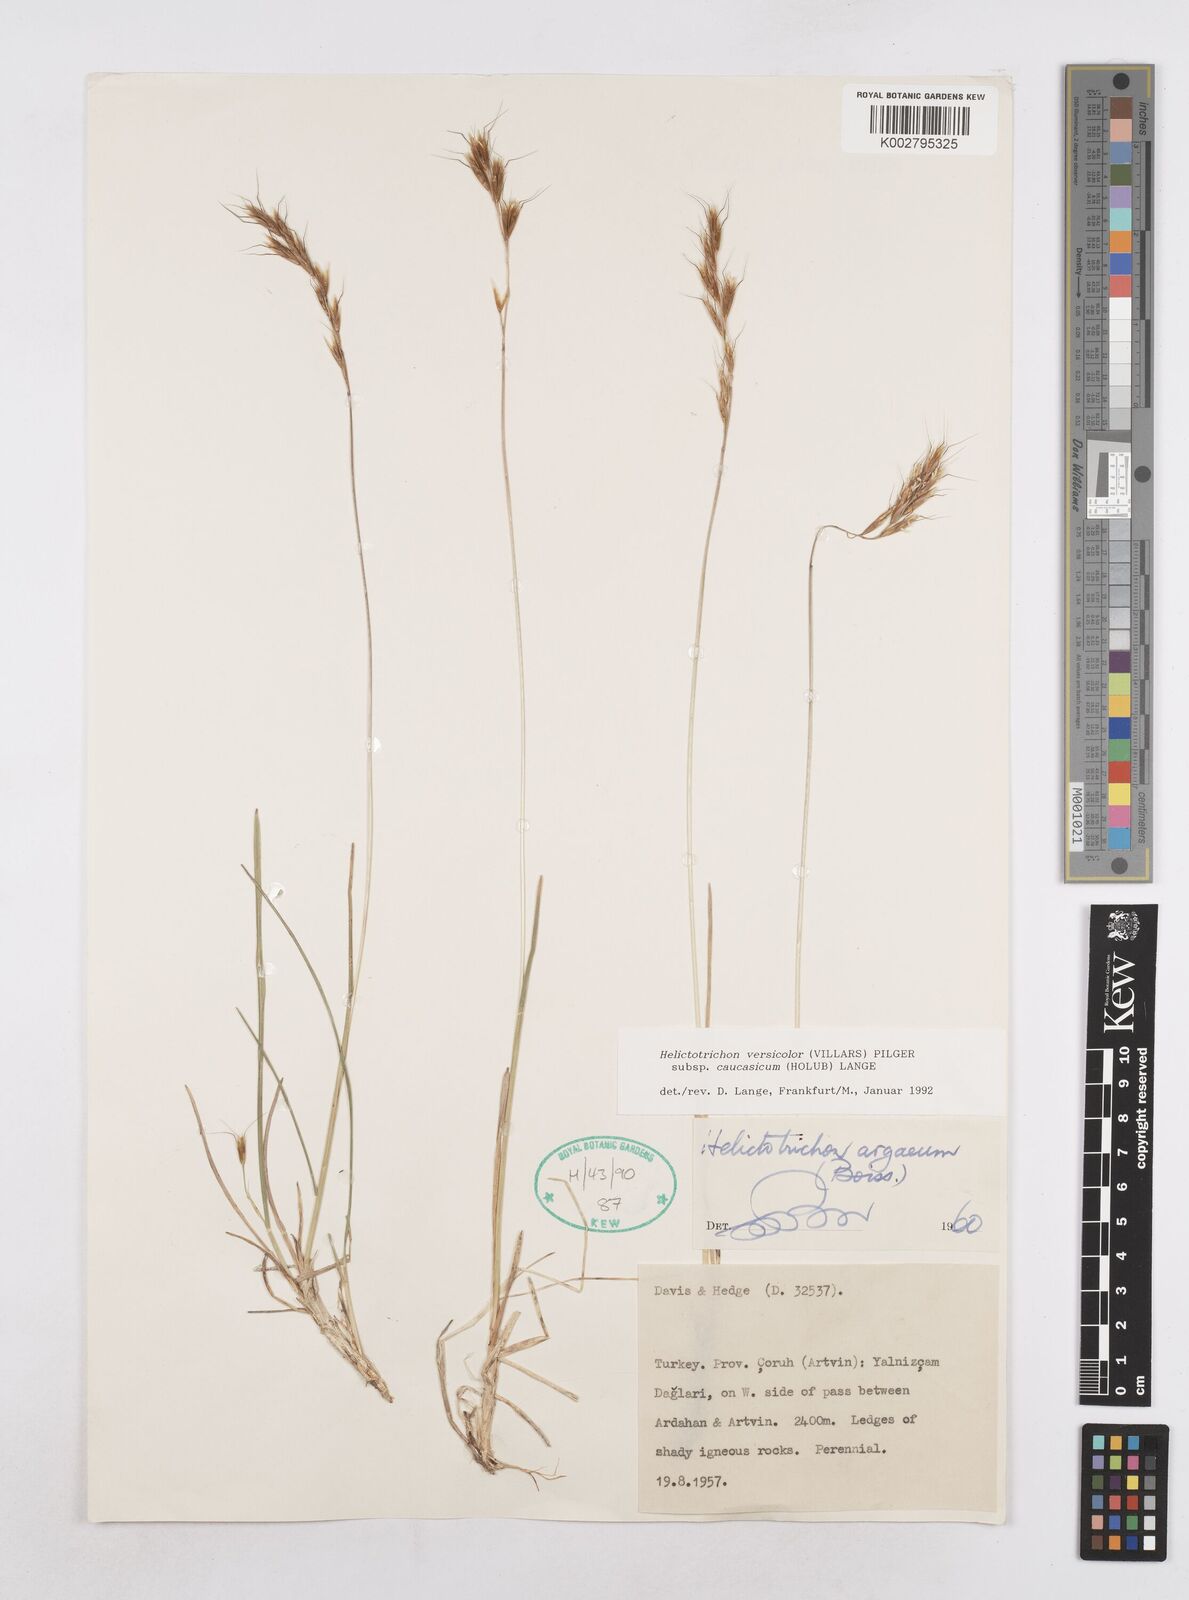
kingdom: Plantae
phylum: Tracheophyta
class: Liliopsida
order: Poales
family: Poaceae
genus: Helictochloa
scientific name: Helictochloa versicolor
